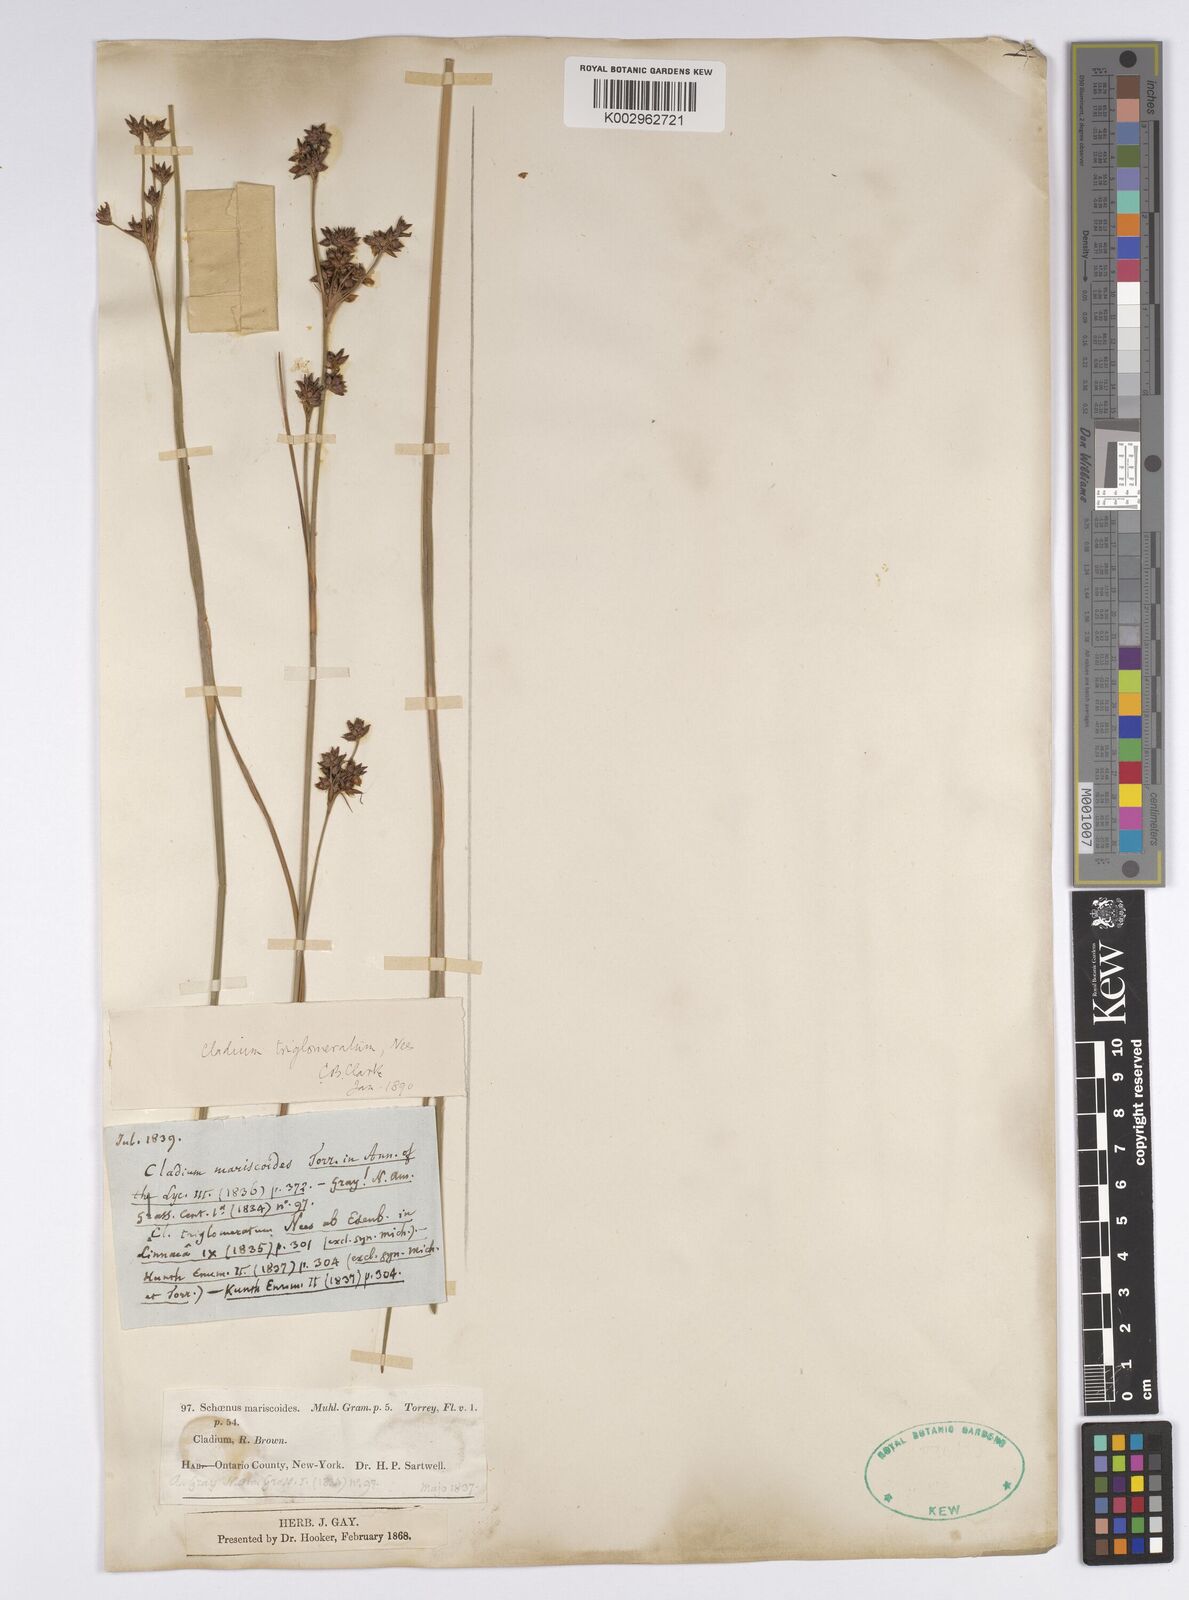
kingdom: Plantae
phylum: Tracheophyta
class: Liliopsida
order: Poales
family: Cyperaceae
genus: Cladium
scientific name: Cladium mariscoides
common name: Smooth sawgrass
